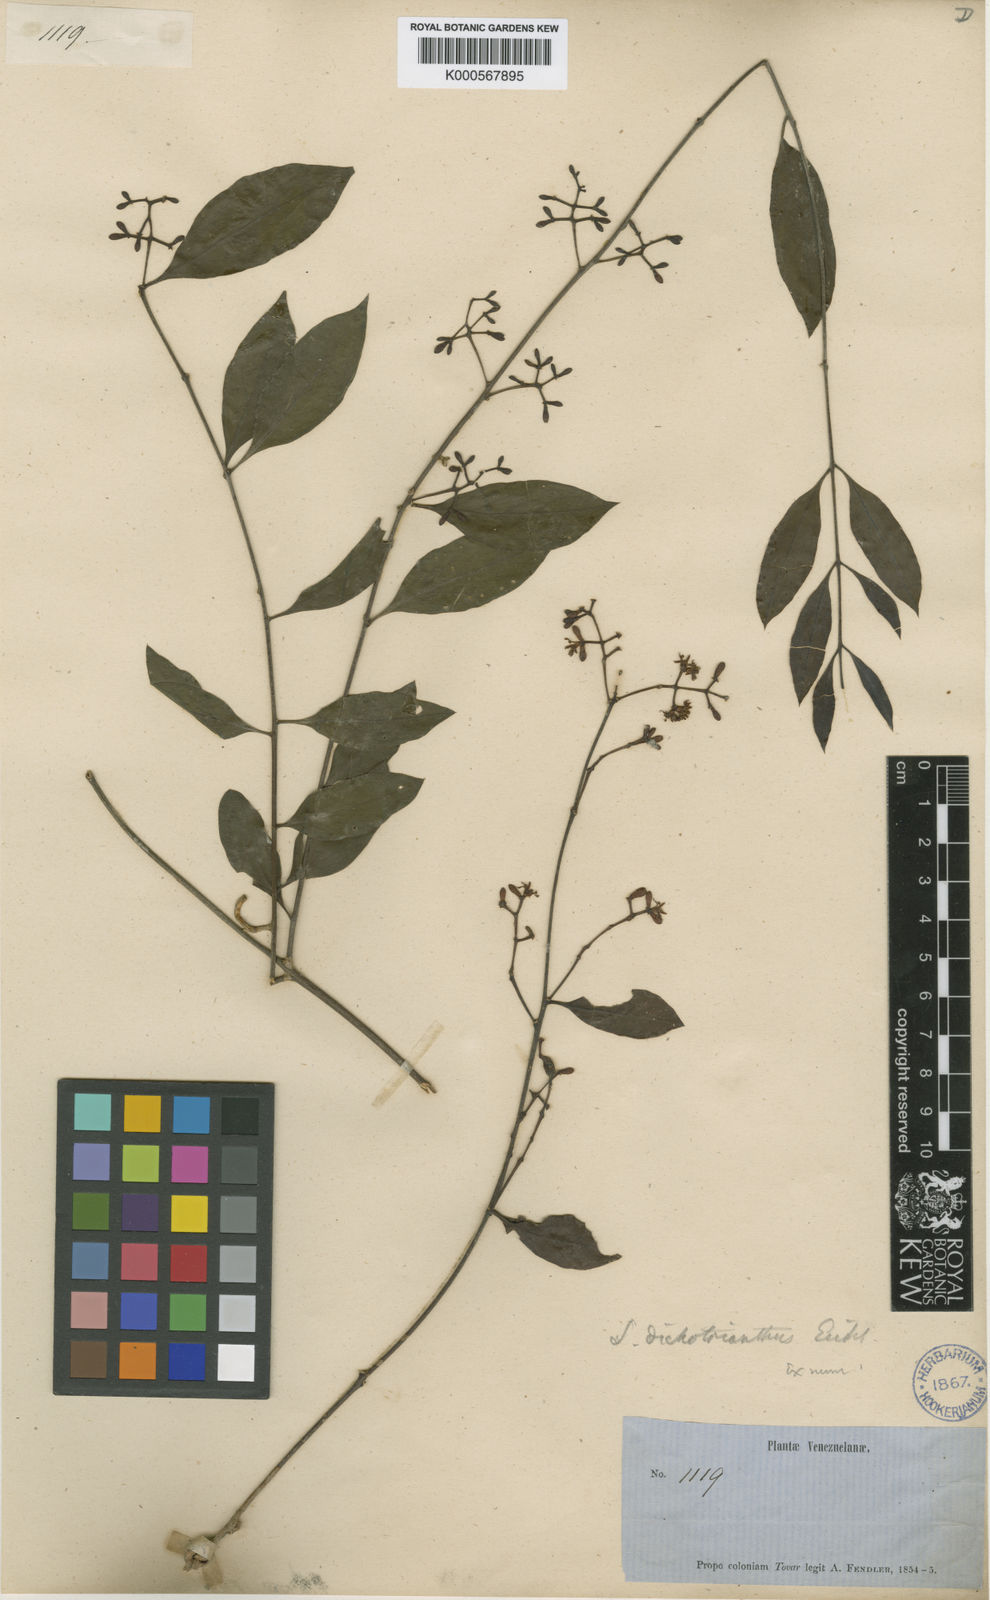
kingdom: Plantae
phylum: Tracheophyta
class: Magnoliopsida
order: Santalales
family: Loranthaceae
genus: Struthanthus
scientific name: Struthanthus phillyreoides
